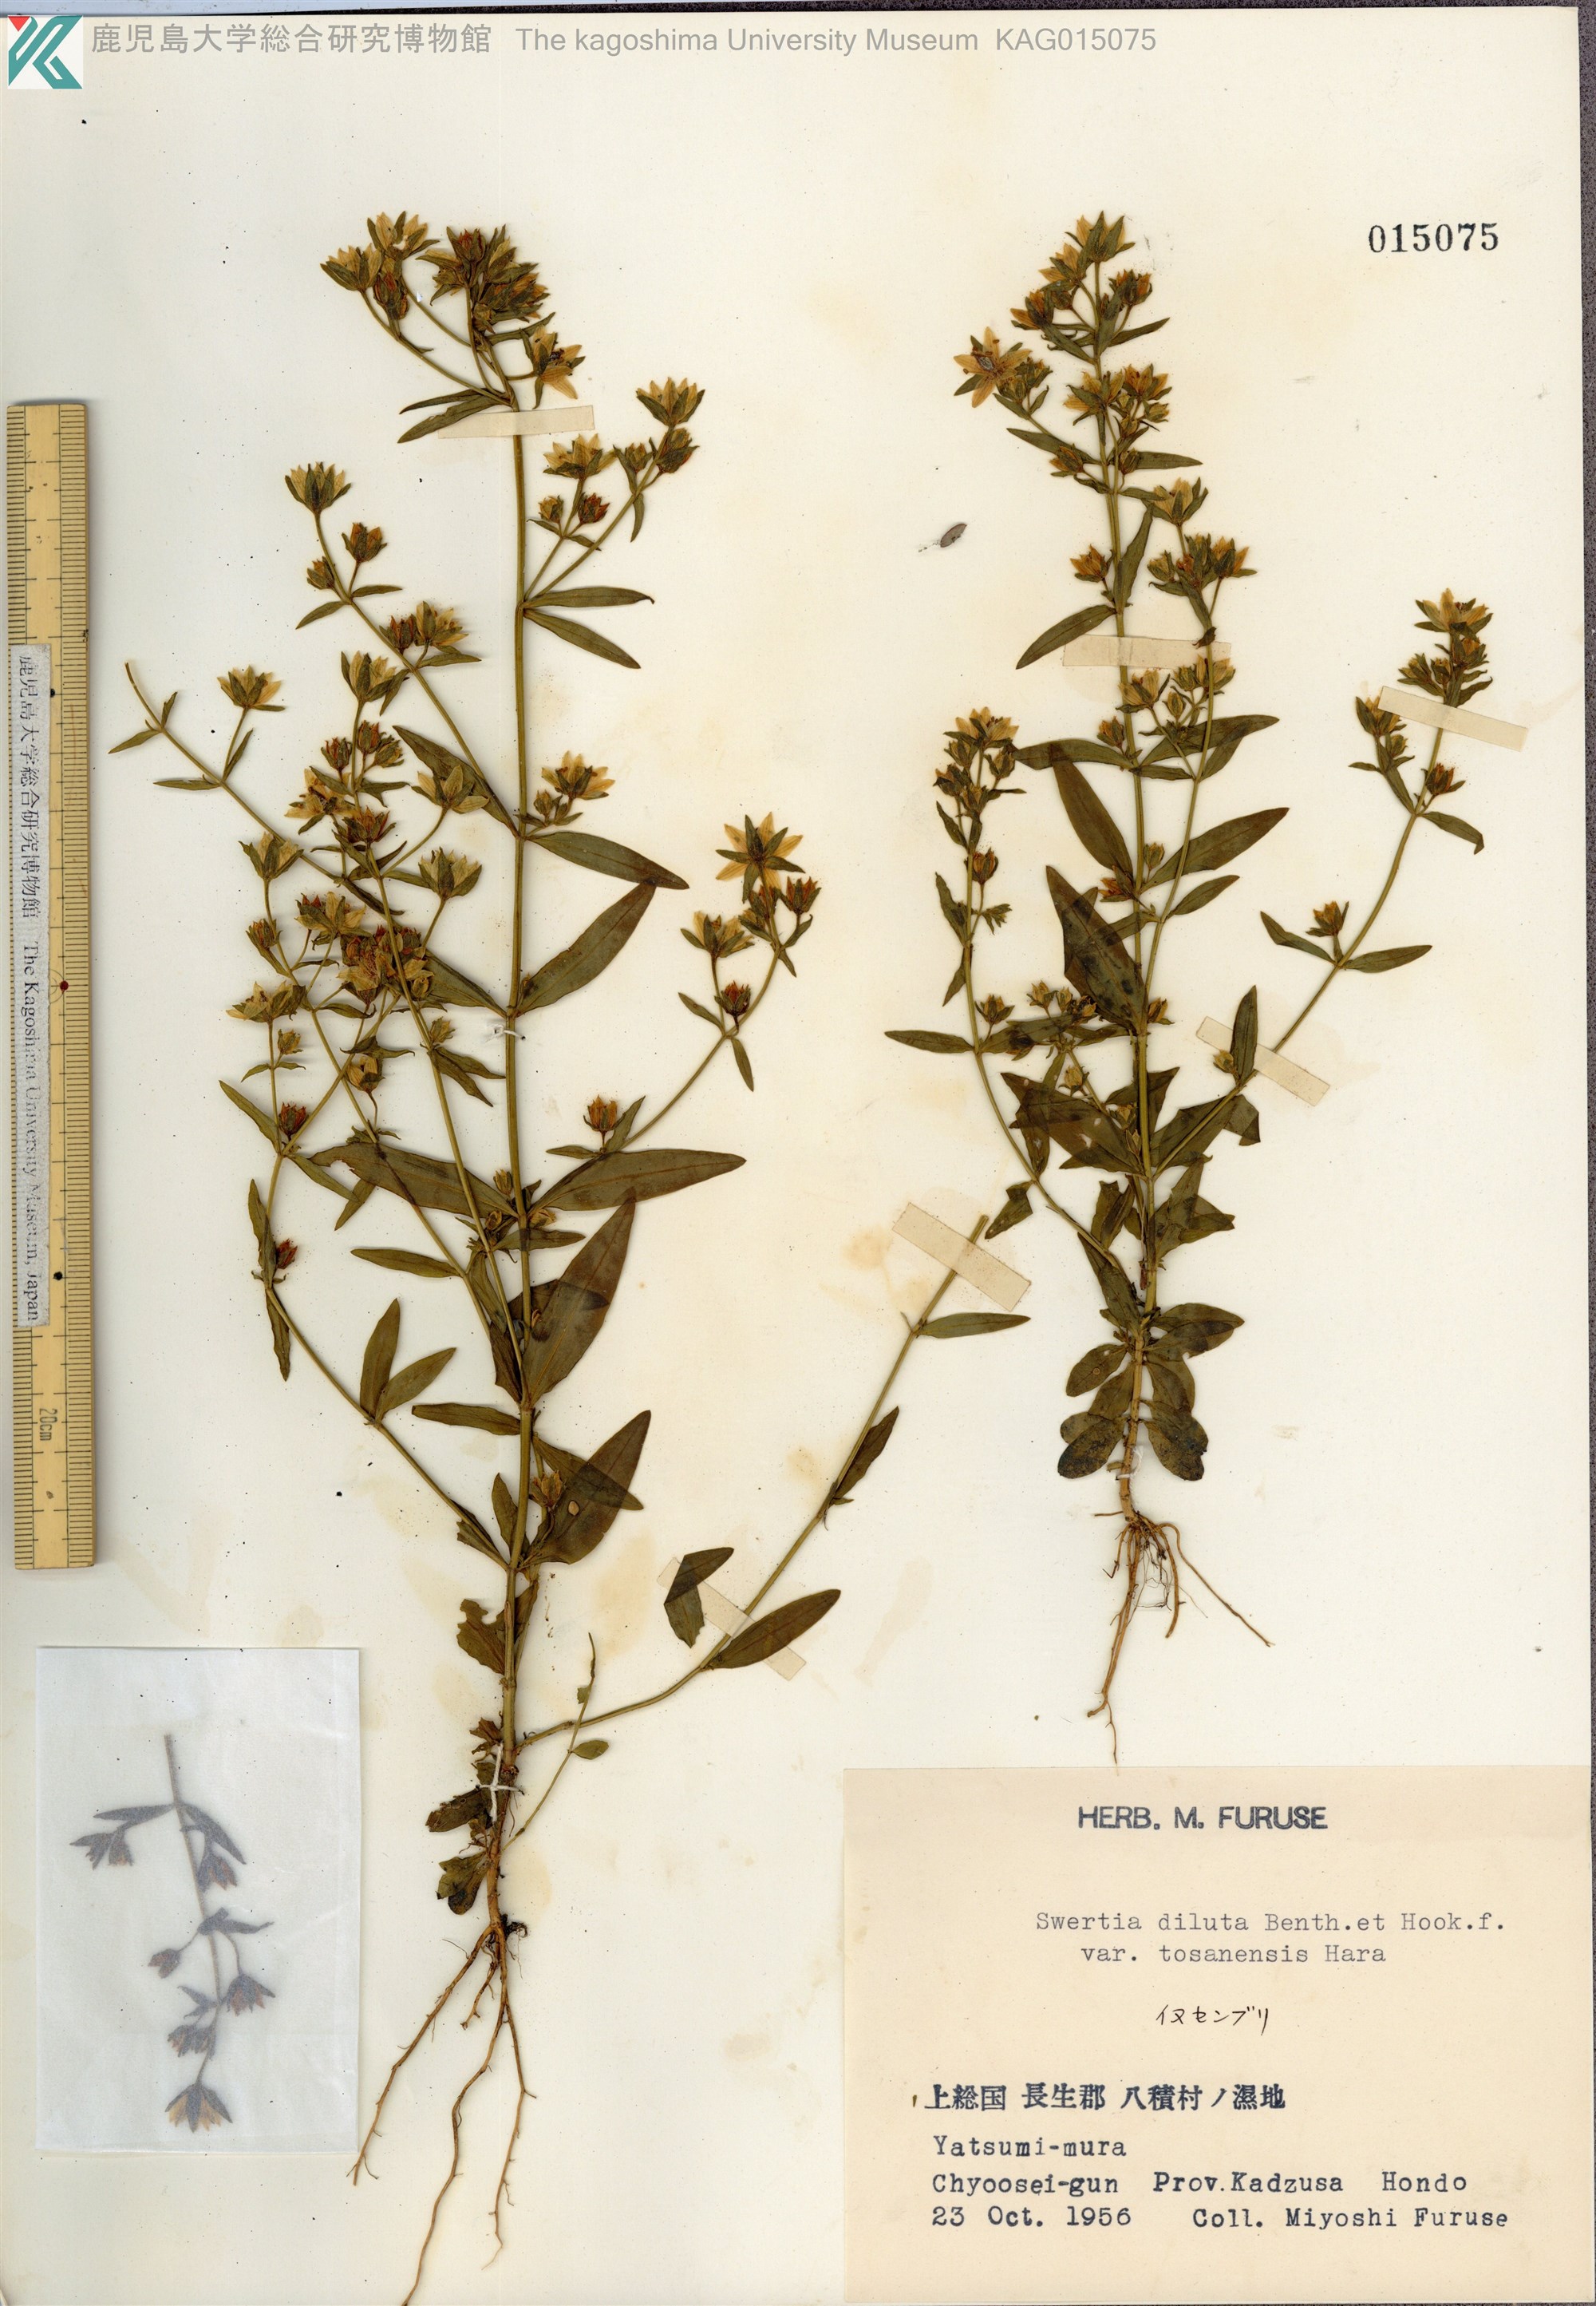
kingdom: Plantae
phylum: Tracheophyta
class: Magnoliopsida
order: Gentianales
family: Gentianaceae
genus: Swertia
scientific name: Swertia diluta
